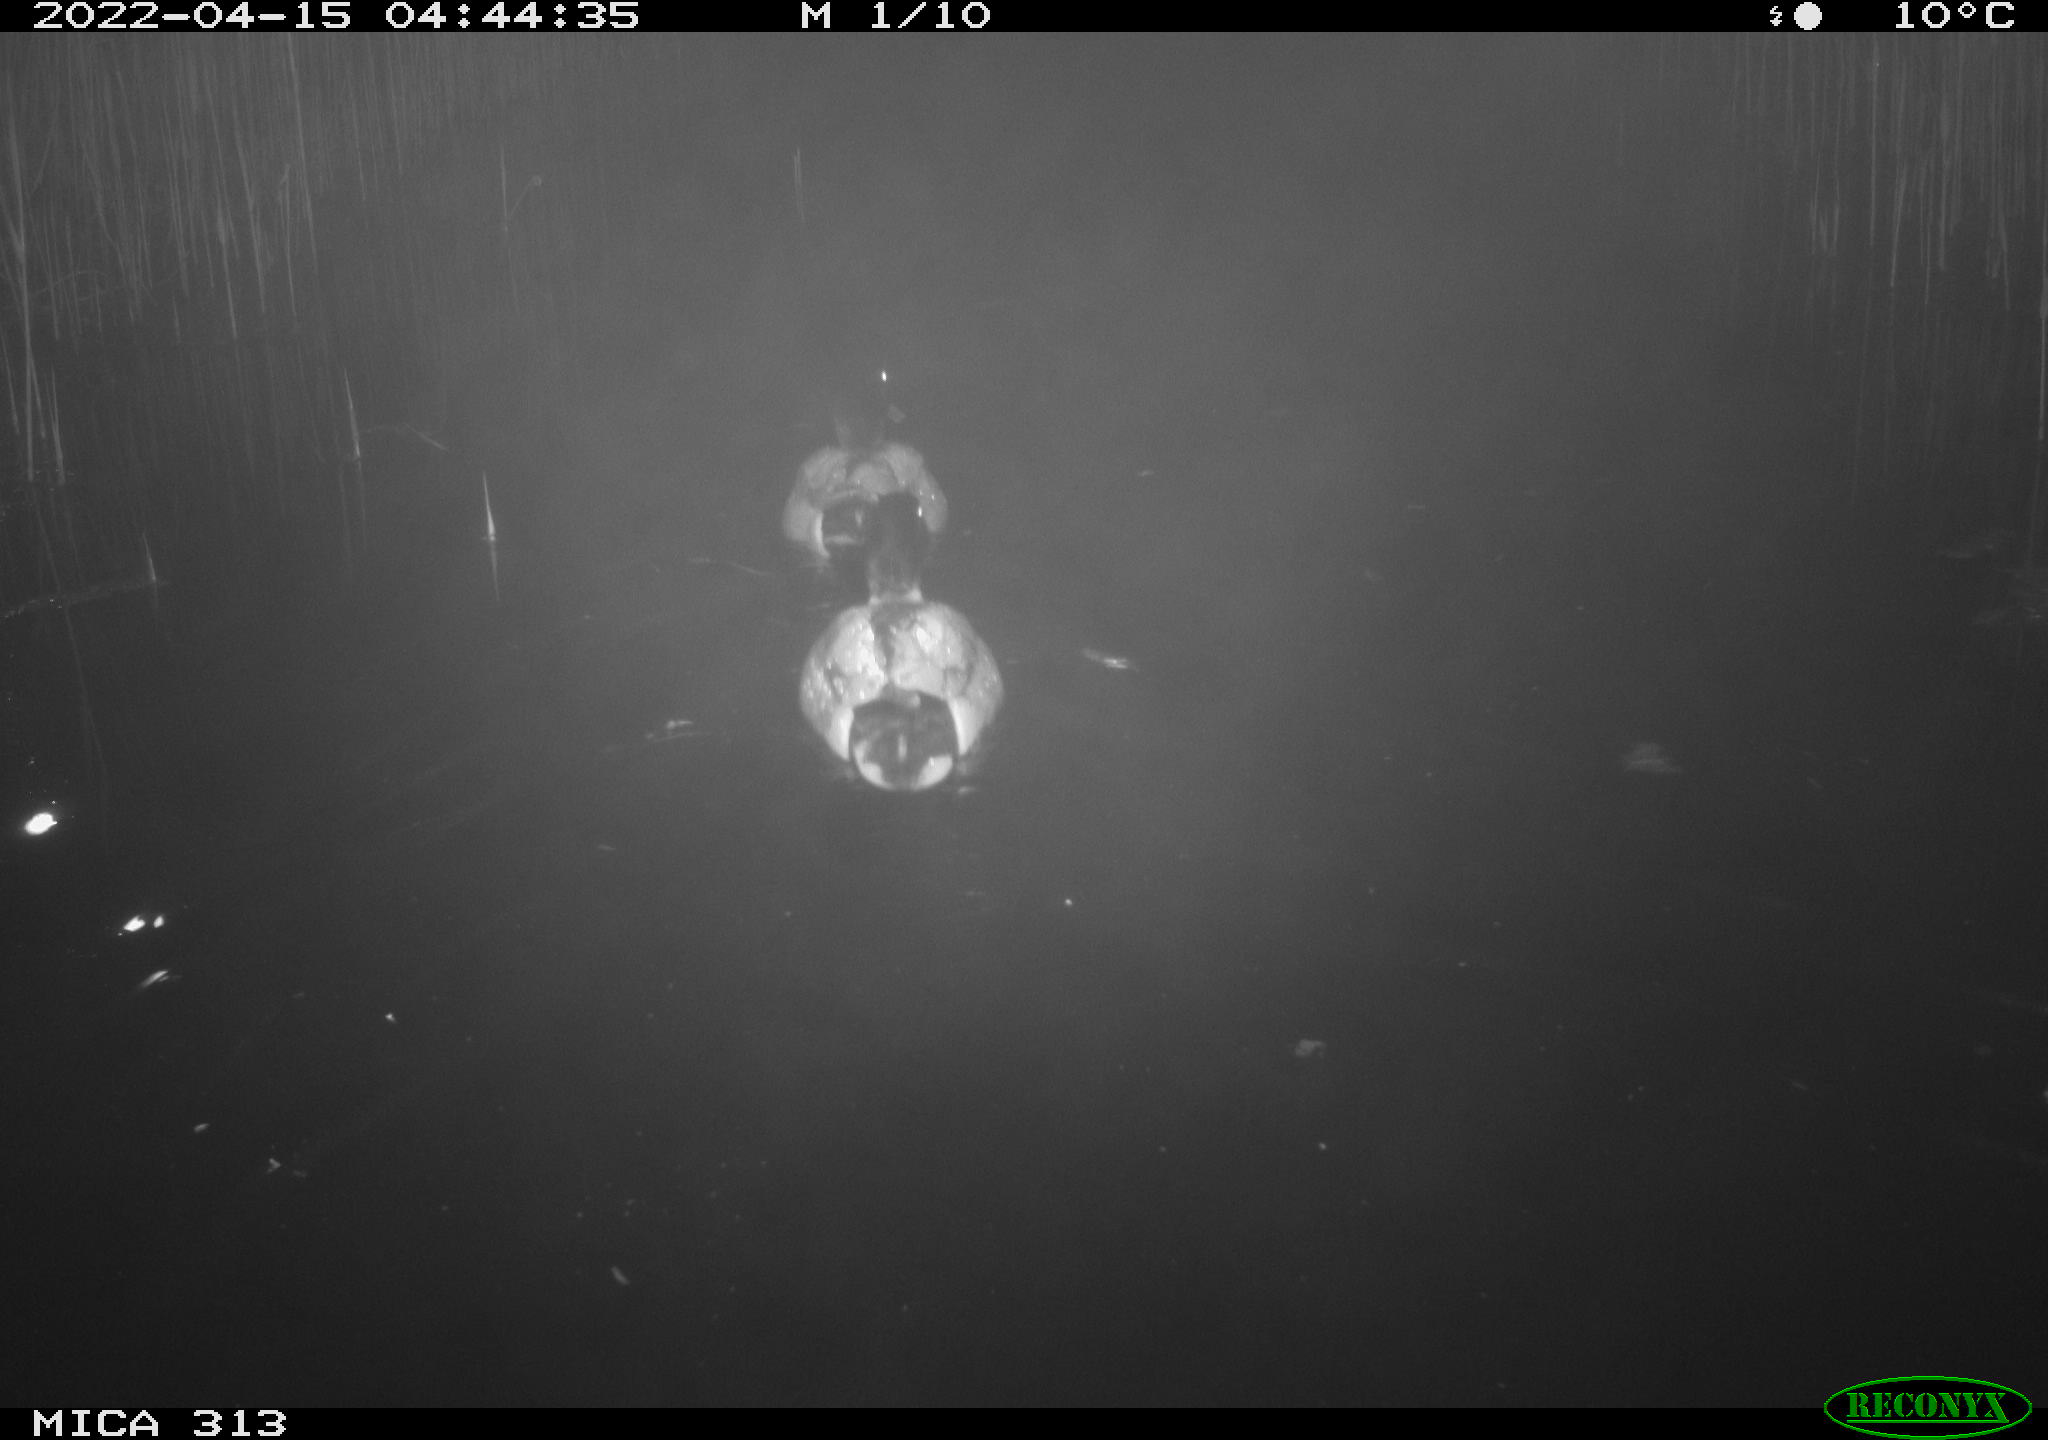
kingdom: Animalia
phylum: Chordata
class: Aves
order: Anseriformes
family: Anatidae
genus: Anas
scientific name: Anas platyrhynchos
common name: Mallard
